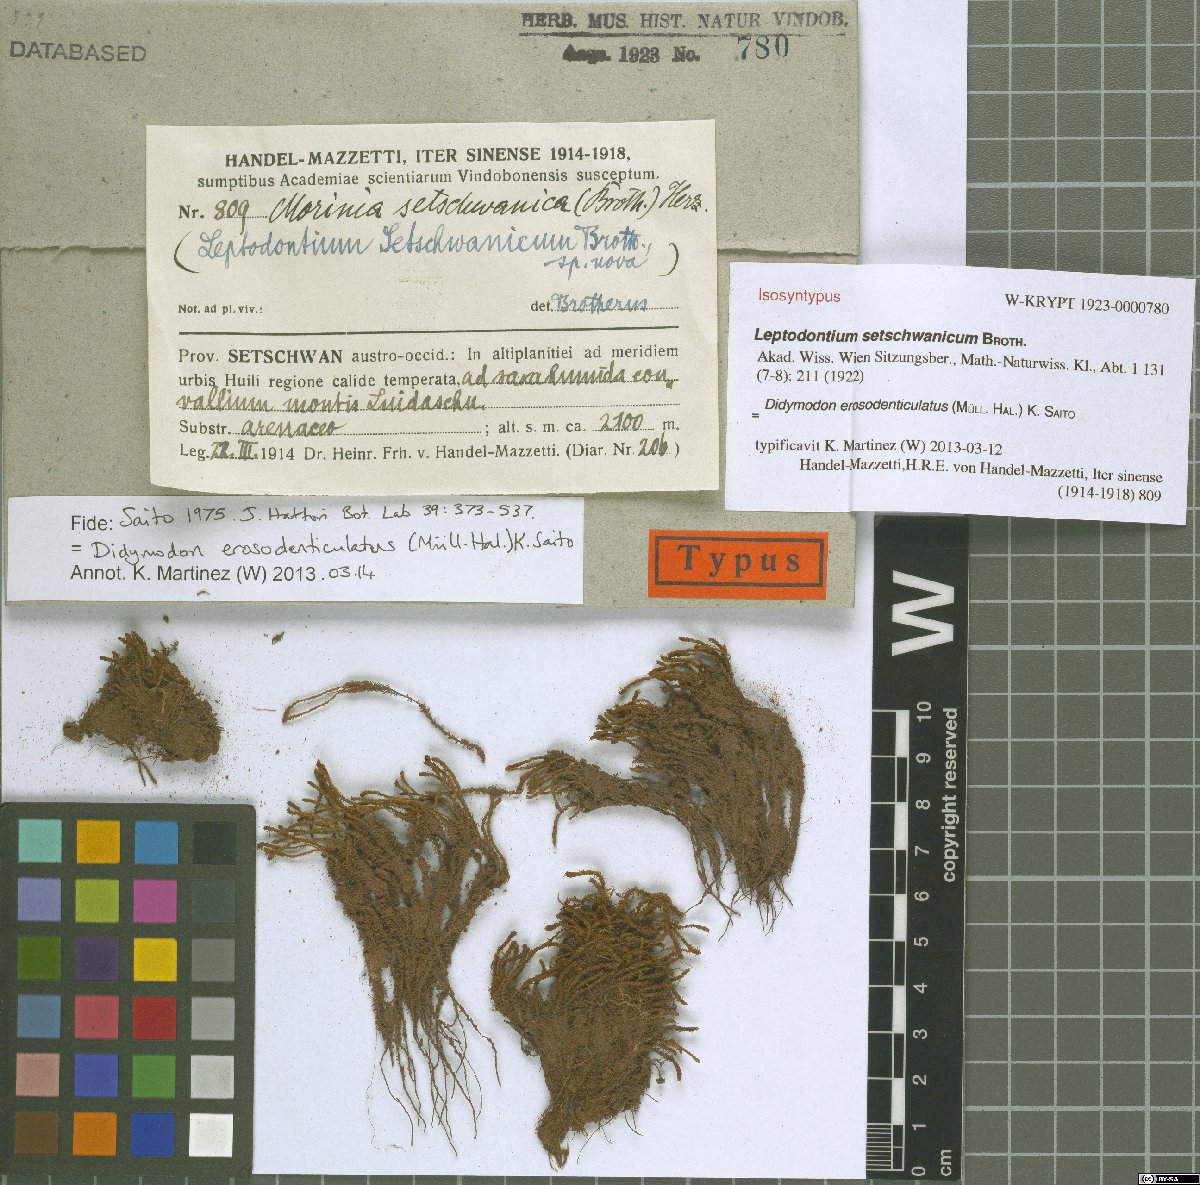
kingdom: Plantae
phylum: Bryophyta
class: Bryopsida
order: Pottiales
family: Pottiaceae
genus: Geheebia
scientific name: Geheebia erosodenticulata
